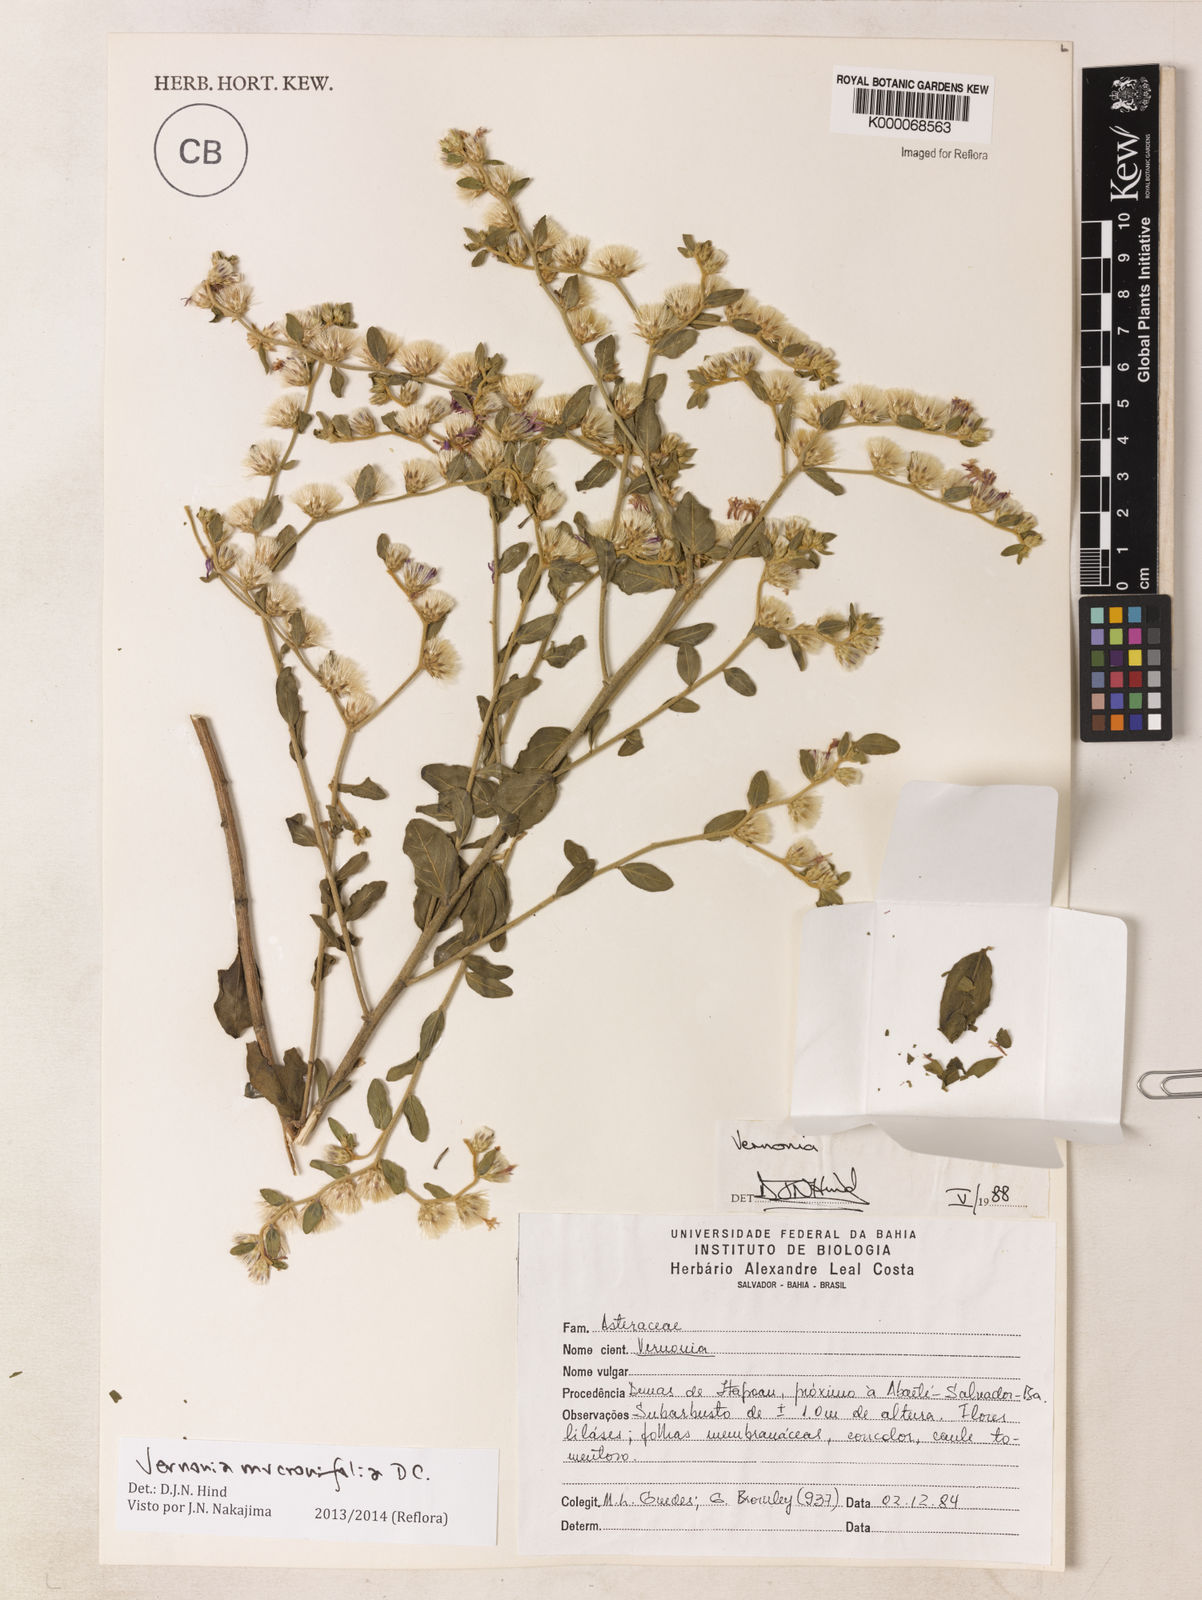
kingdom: Plantae
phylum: Tracheophyta
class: Magnoliopsida
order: Asterales
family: Asteraceae
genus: Lepidaploa
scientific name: Lepidaploa mucronifolia
